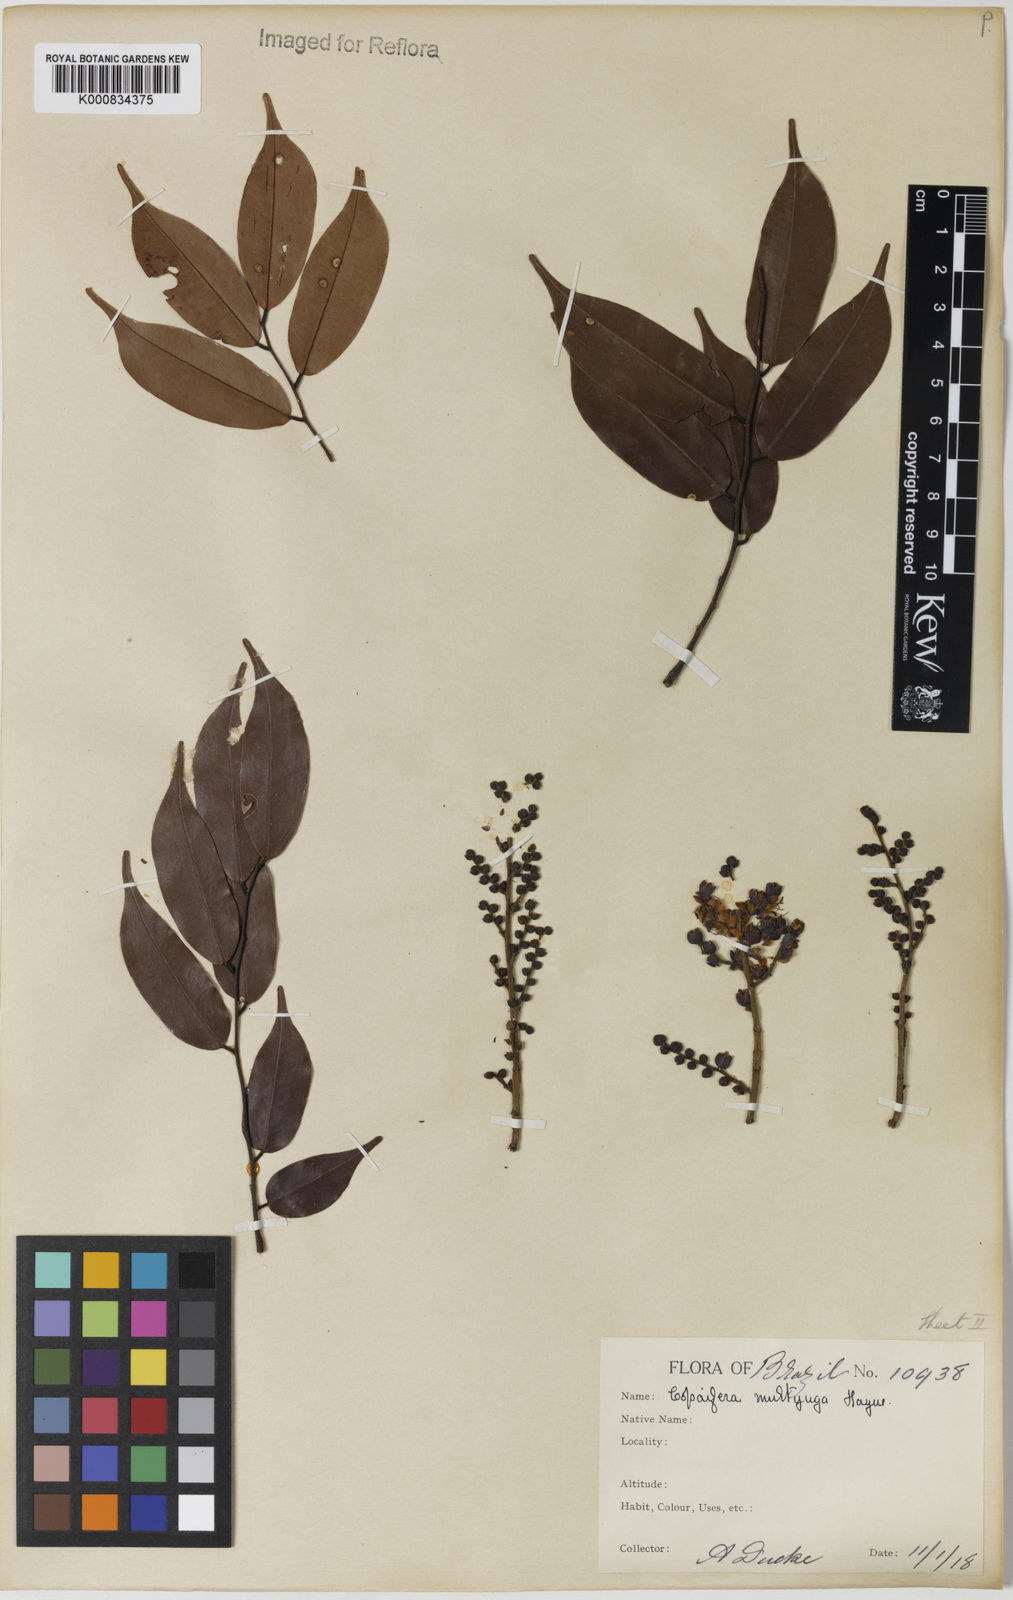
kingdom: Plantae
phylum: Tracheophyta
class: Magnoliopsida
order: Fabales
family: Fabaceae
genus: Copaifera
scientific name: Copaifera multijuga
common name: Brazilian copaiba
